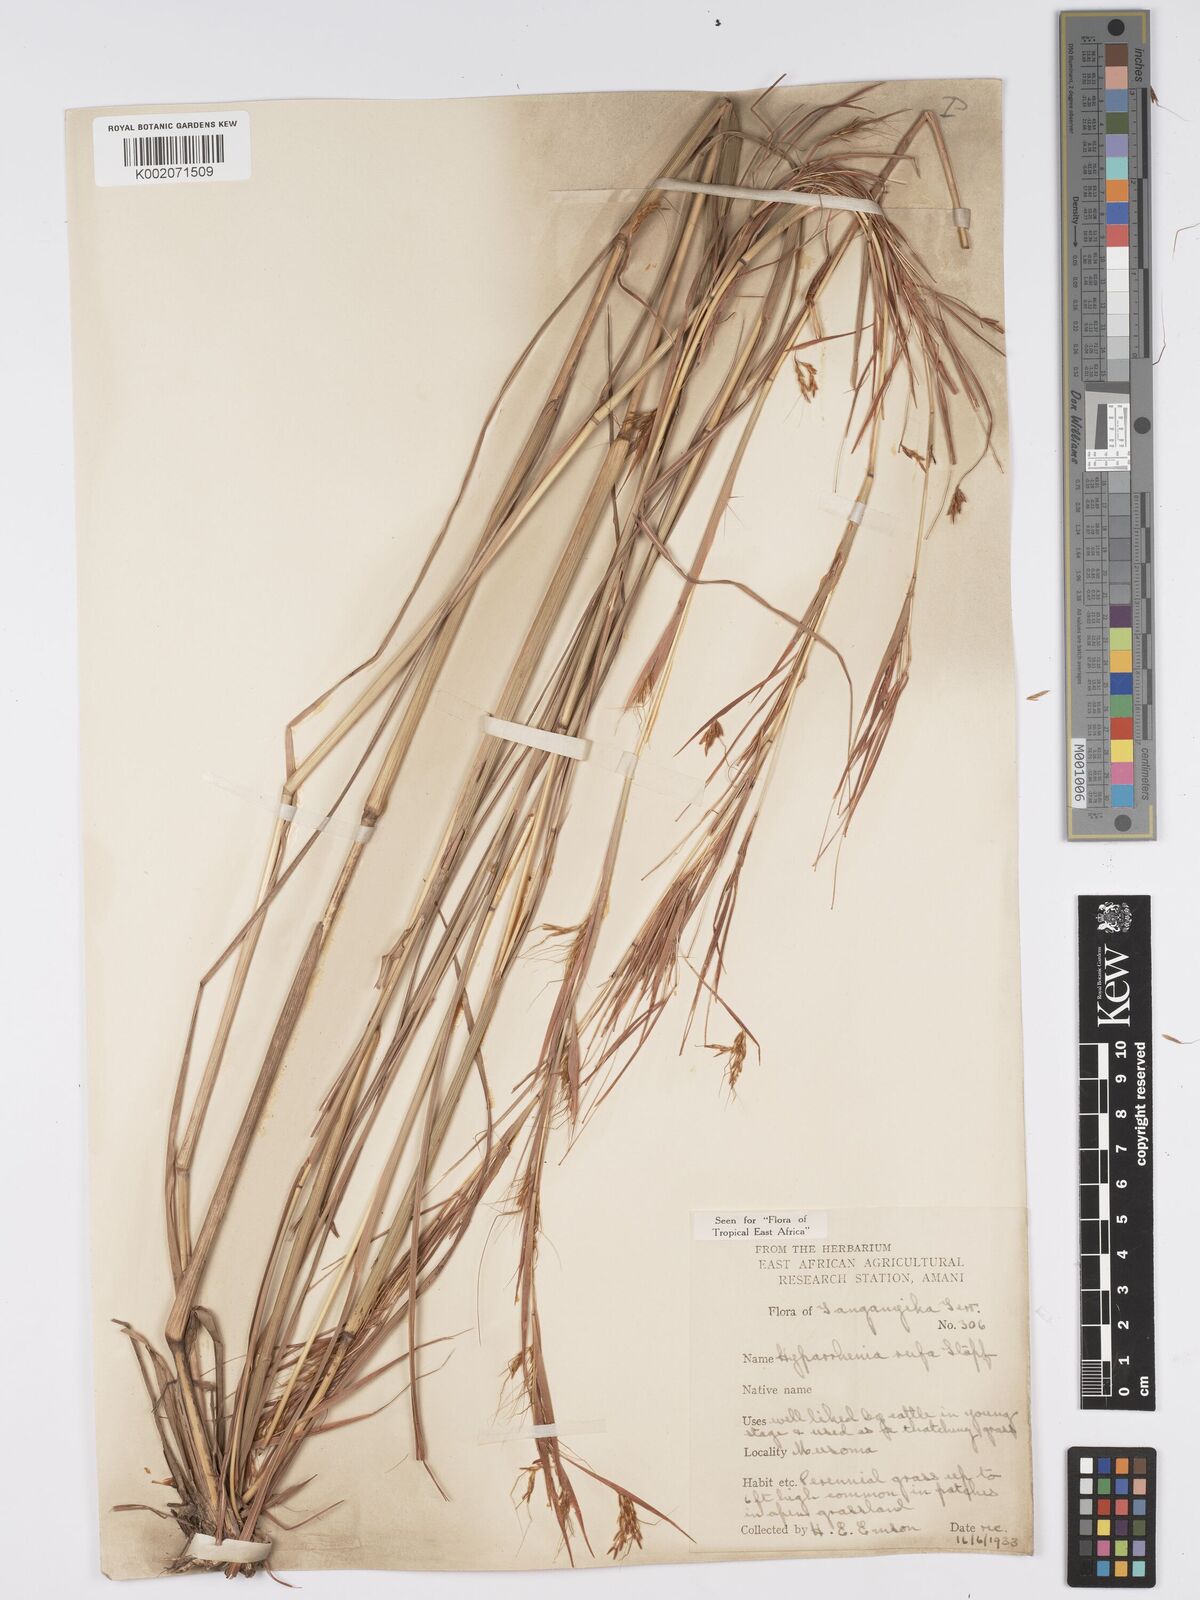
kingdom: Plantae
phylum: Tracheophyta
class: Liliopsida
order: Poales
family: Poaceae
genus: Hyparrhenia
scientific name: Hyparrhenia rufa
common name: Jaraguagrass
